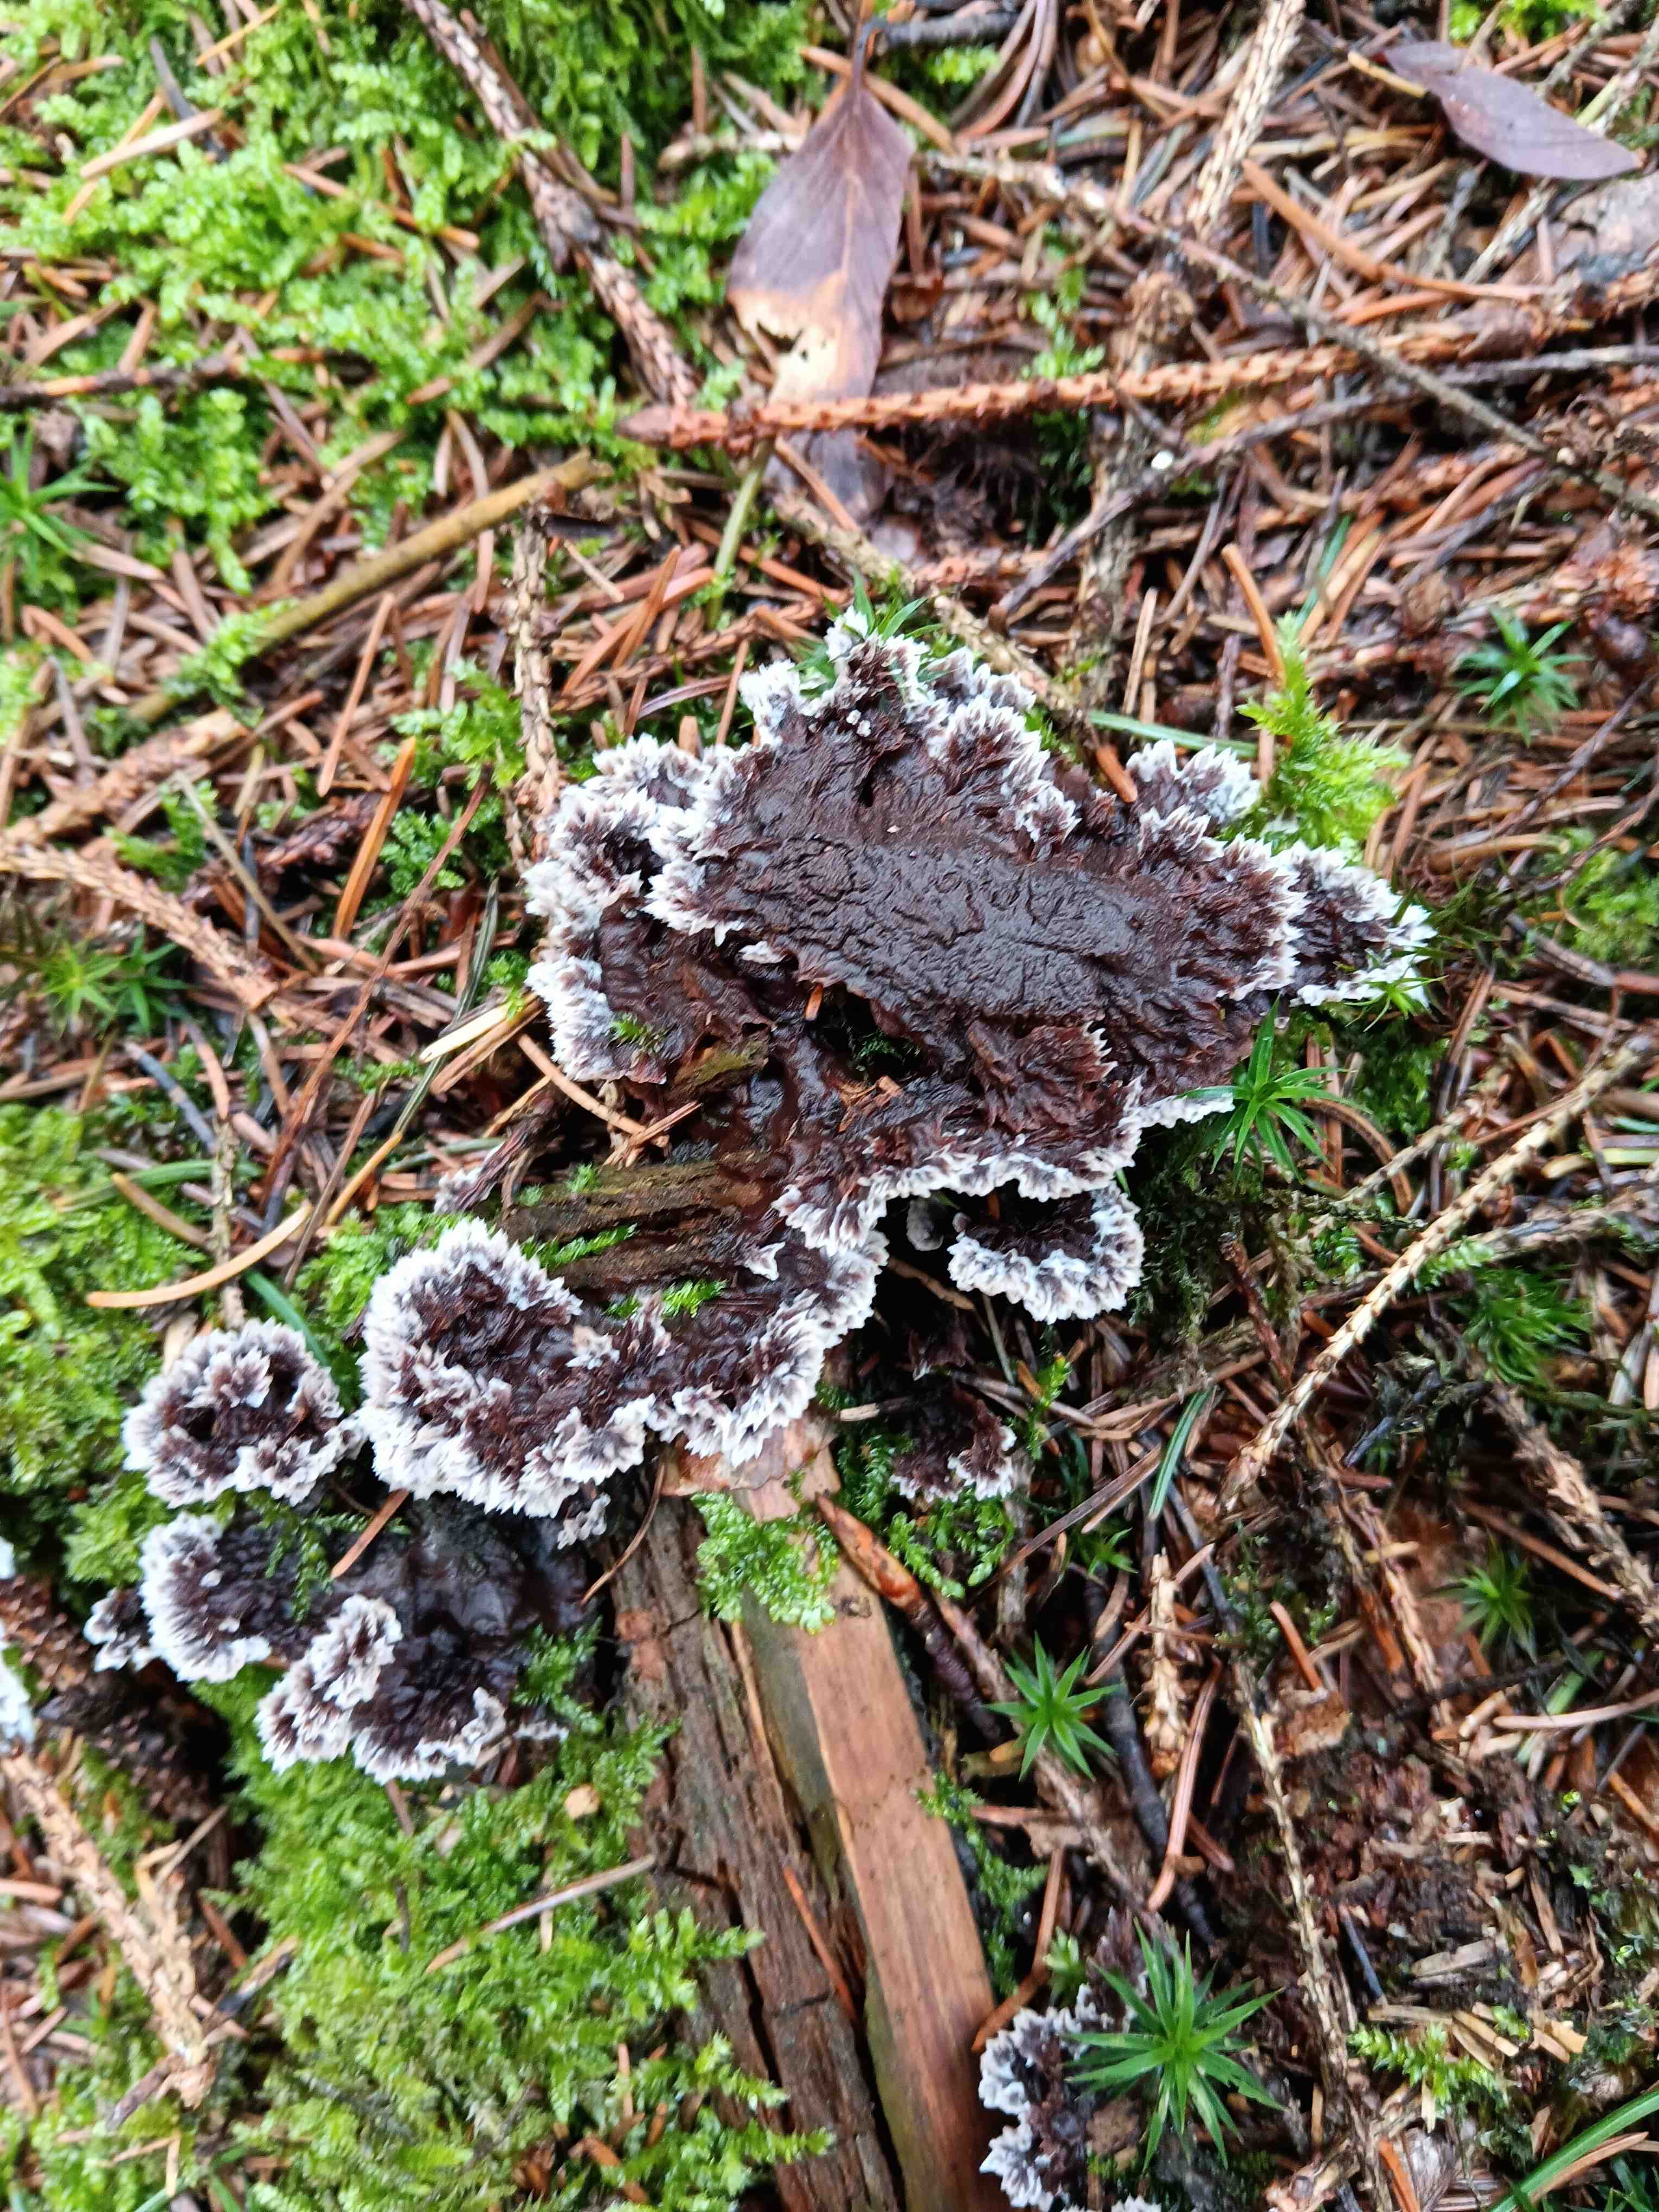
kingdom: Fungi
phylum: Basidiomycota
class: Agaricomycetes
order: Thelephorales
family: Thelephoraceae
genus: Thelephora
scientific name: Thelephora terrestris
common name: fliget frynsesvamp
